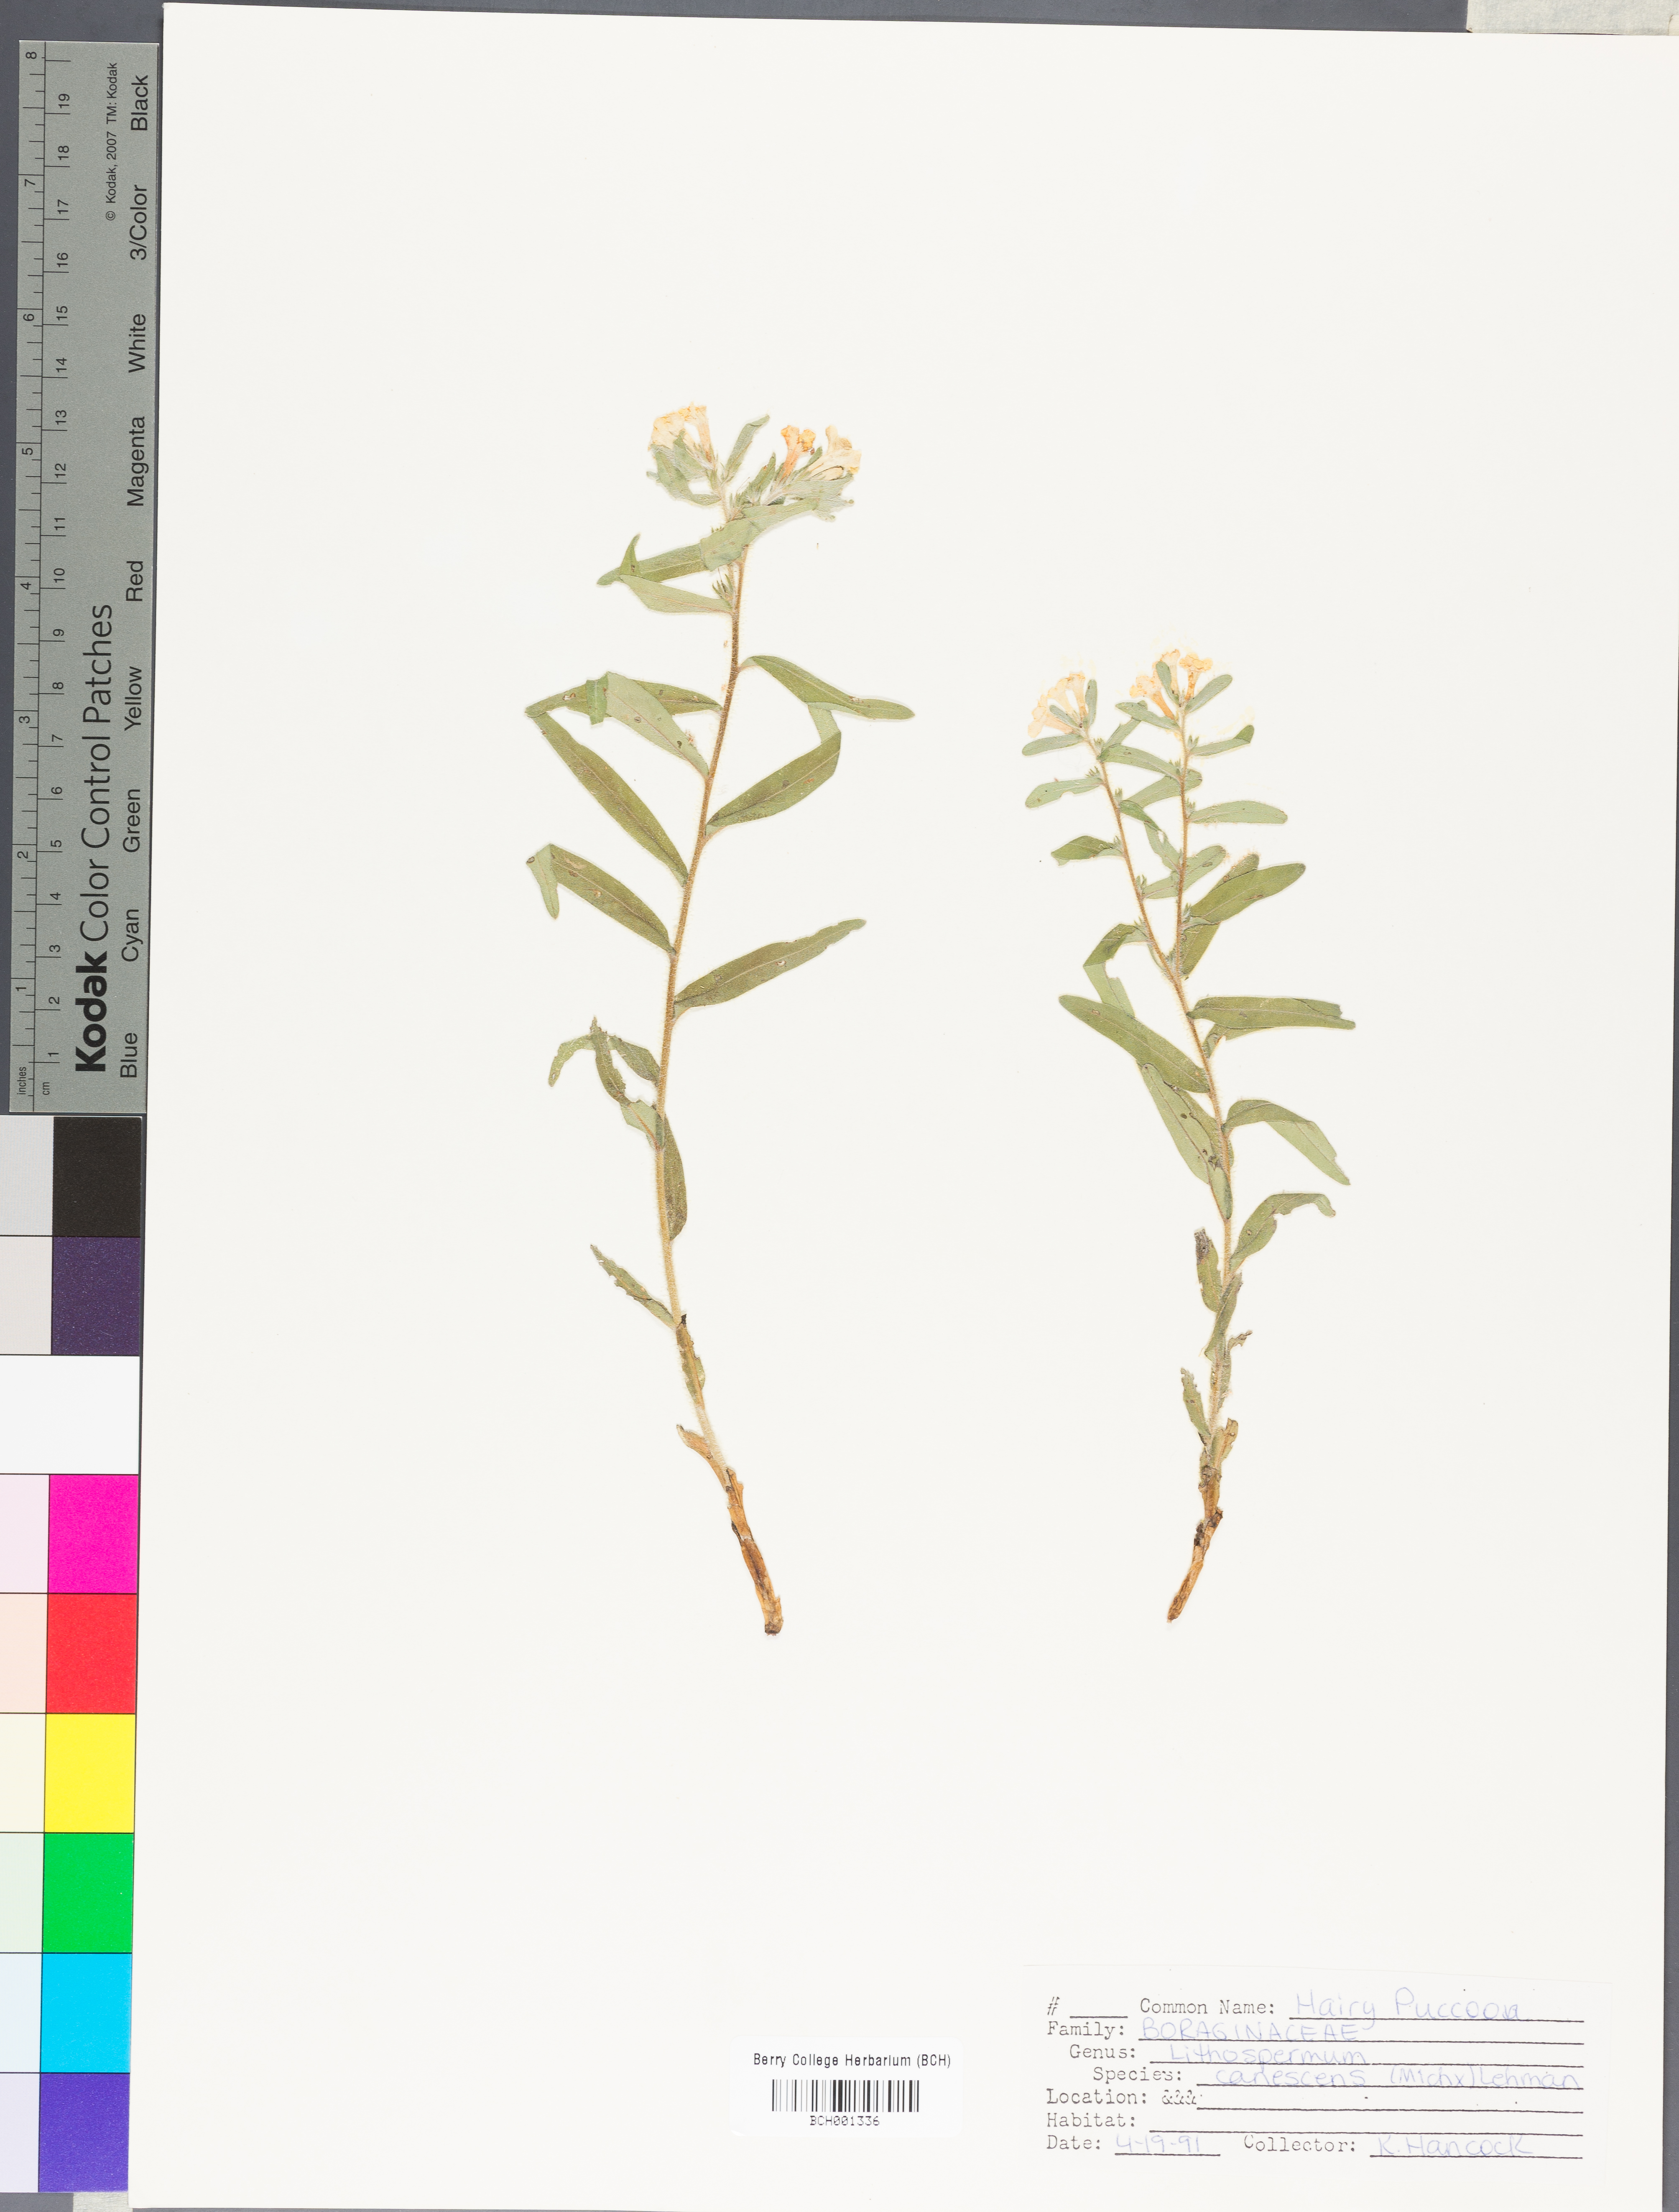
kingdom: Plantae
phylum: Tracheophyta
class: Magnoliopsida
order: Boraginales
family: Boraginaceae
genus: Lithospermum
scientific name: Lithospermum canescens
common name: Hoary puccoon
